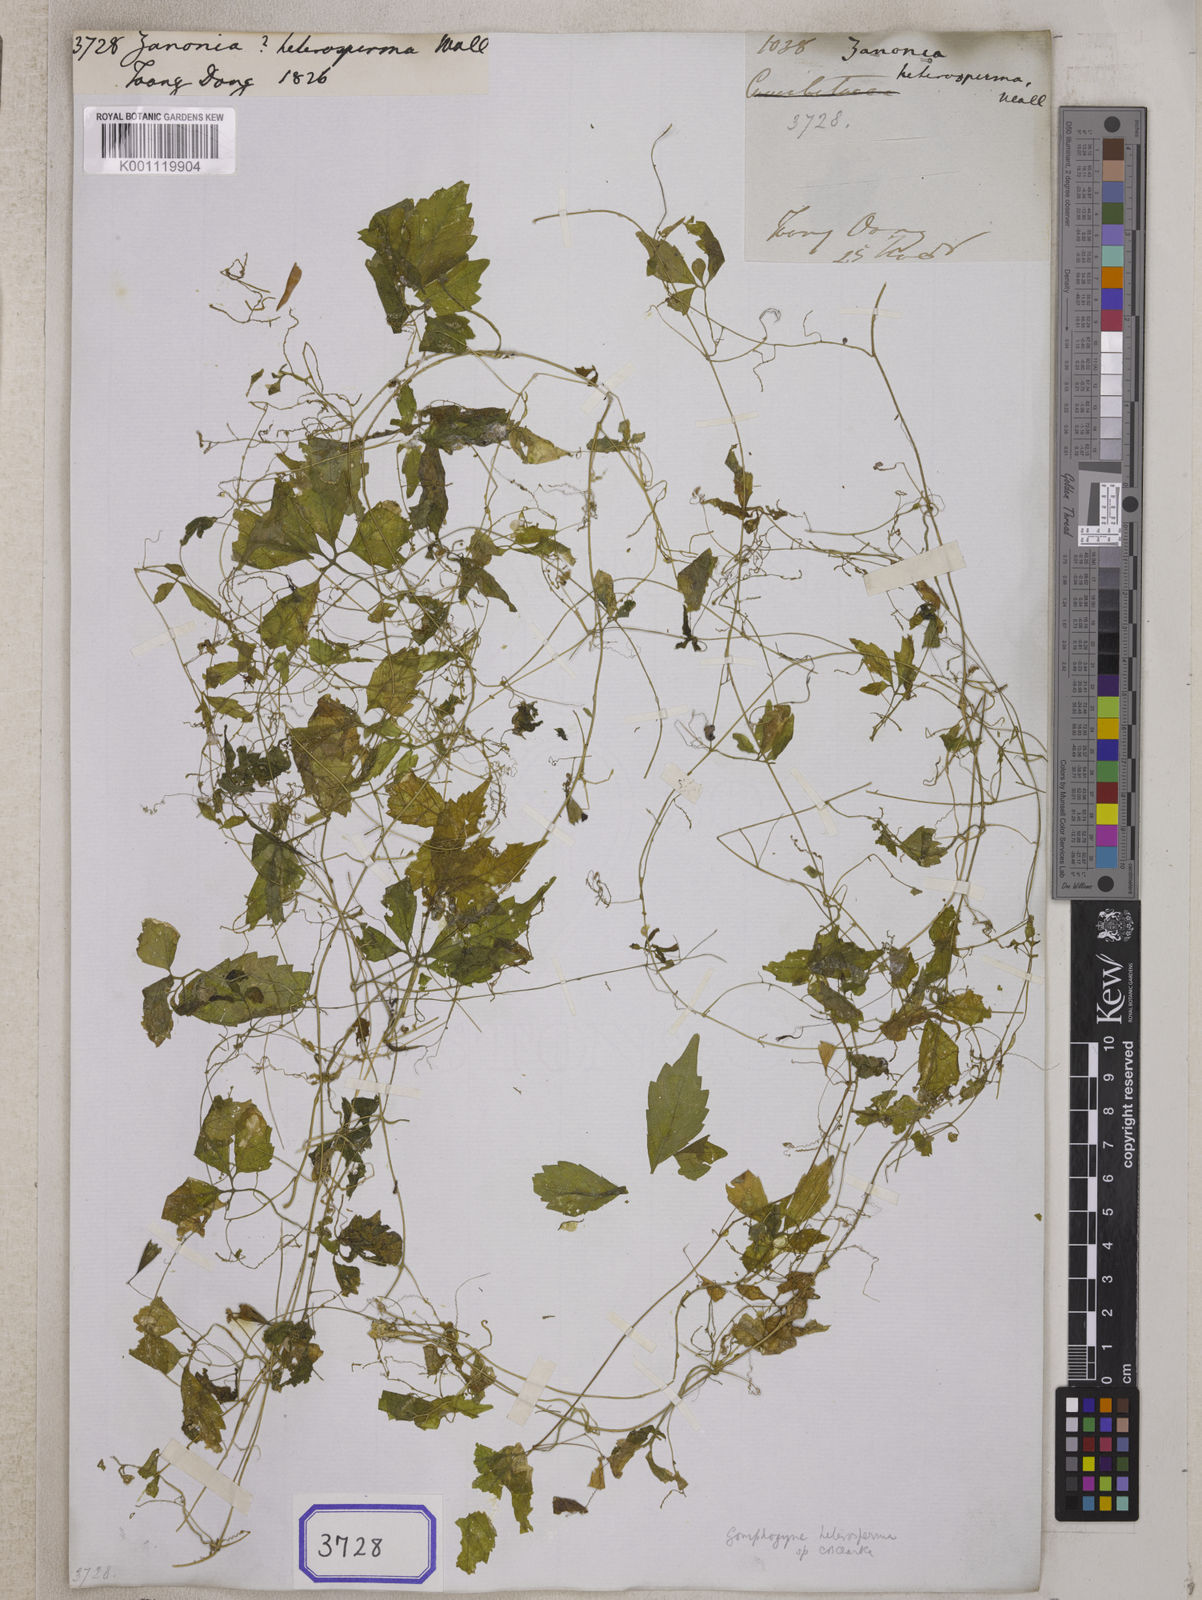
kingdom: Plantae
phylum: Tracheophyta
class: Magnoliopsida
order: Cucurbitales
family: Cucurbitaceae
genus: Gomphogyne
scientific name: Gomphogyne heterosperma
